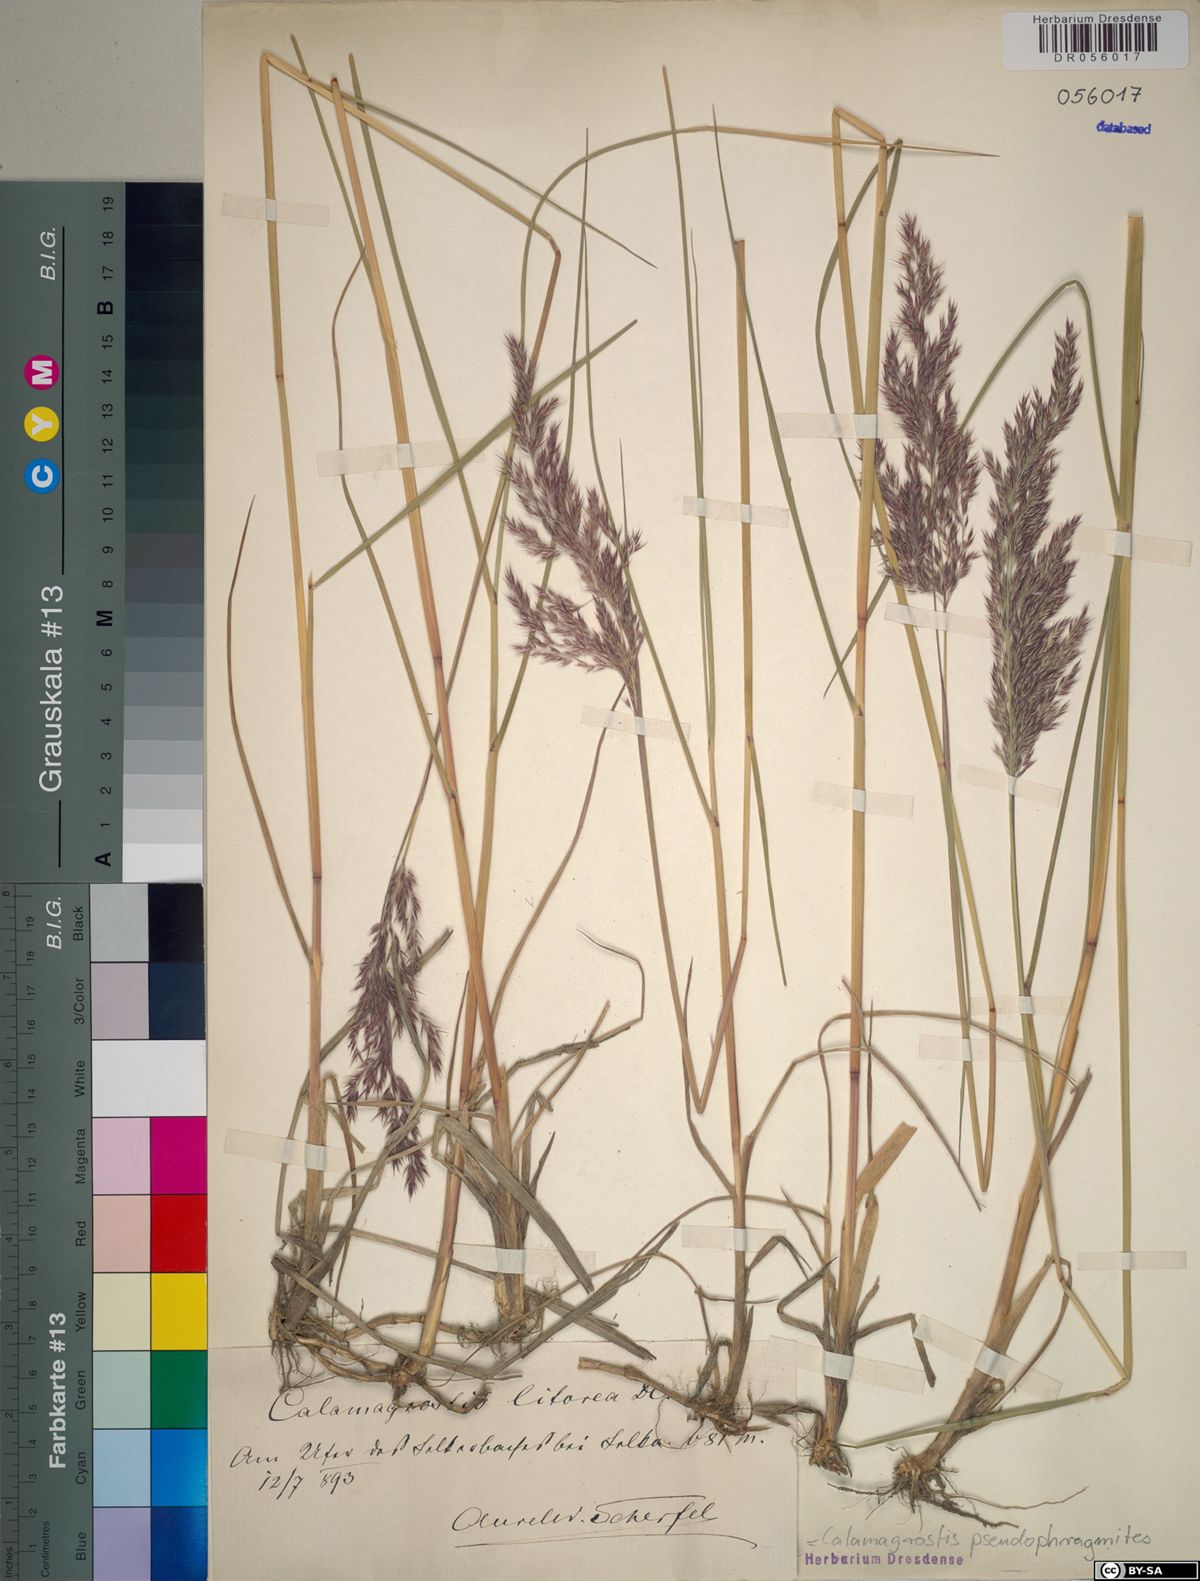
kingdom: Plantae
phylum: Tracheophyta
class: Liliopsida
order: Poales
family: Poaceae
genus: Calamagrostis
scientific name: Calamagrostis pseudophragmites
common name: Coastal small-reed
